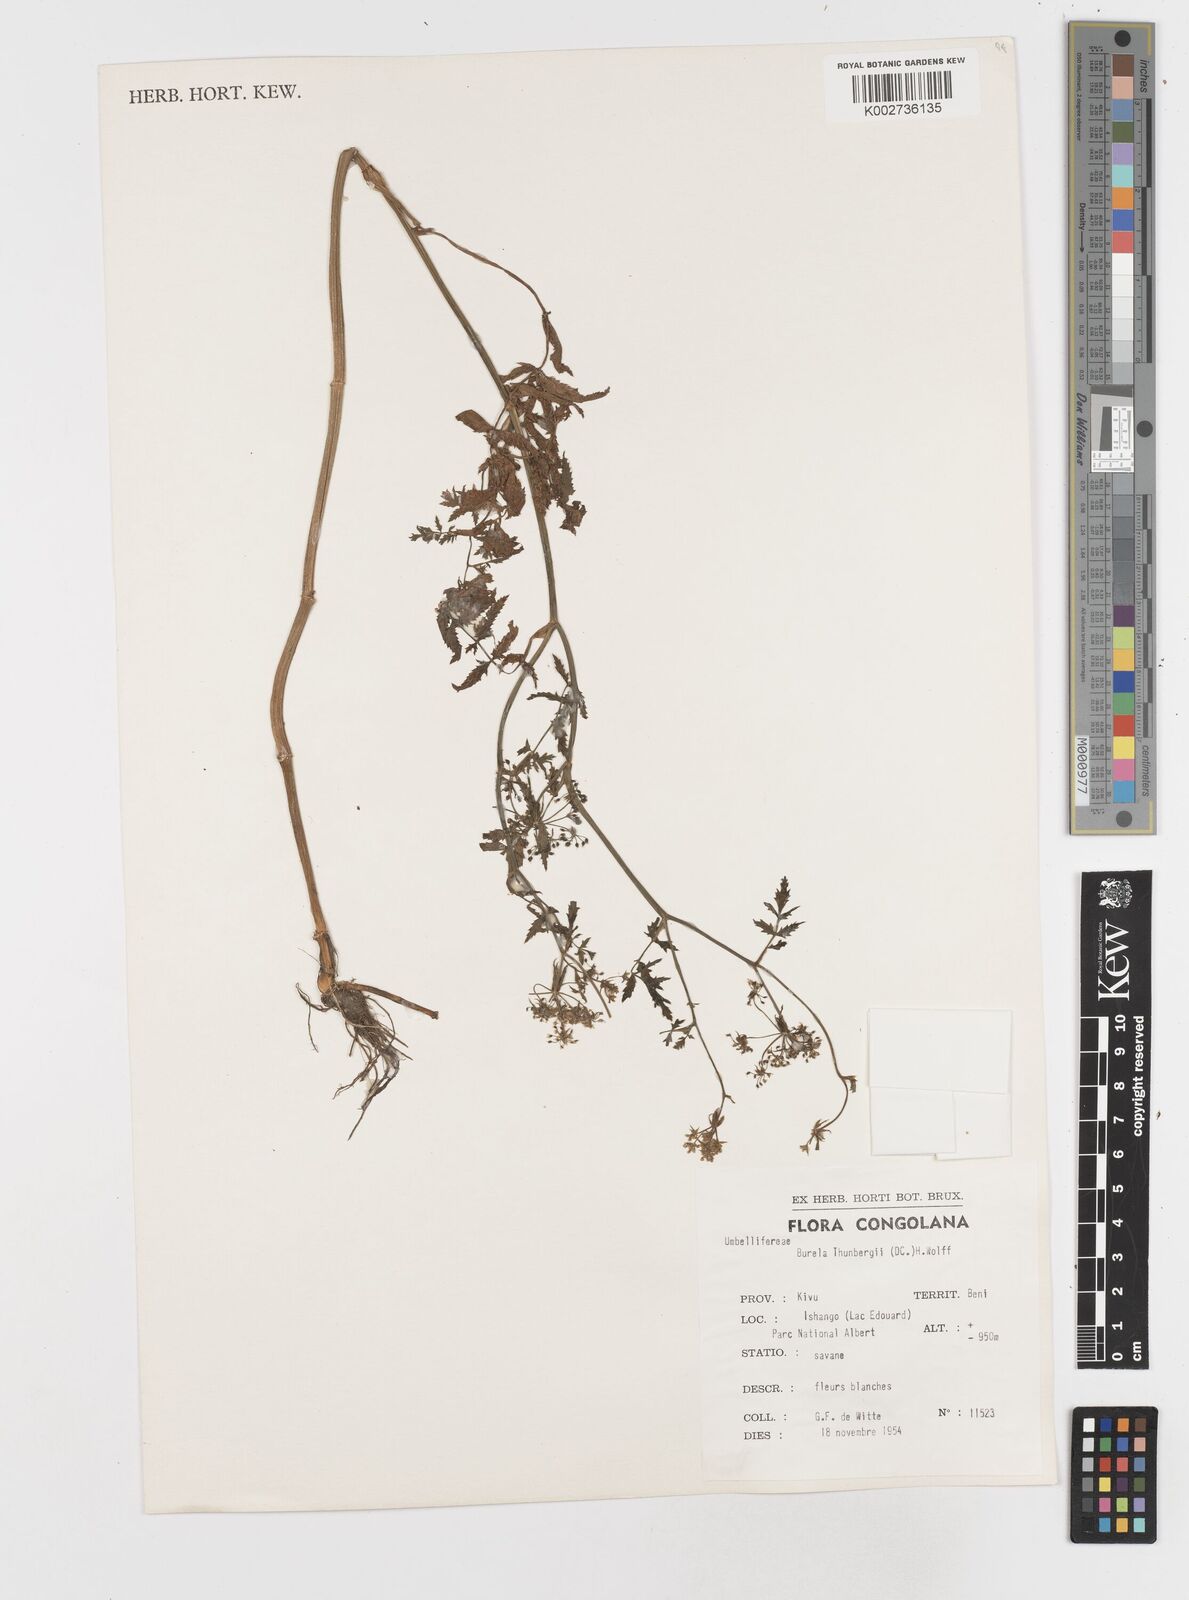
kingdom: Plantae
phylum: Tracheophyta
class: Magnoliopsida
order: Apiales
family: Apiaceae
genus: Berula
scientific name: Berula erecta
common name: Lesser water-parsnip
